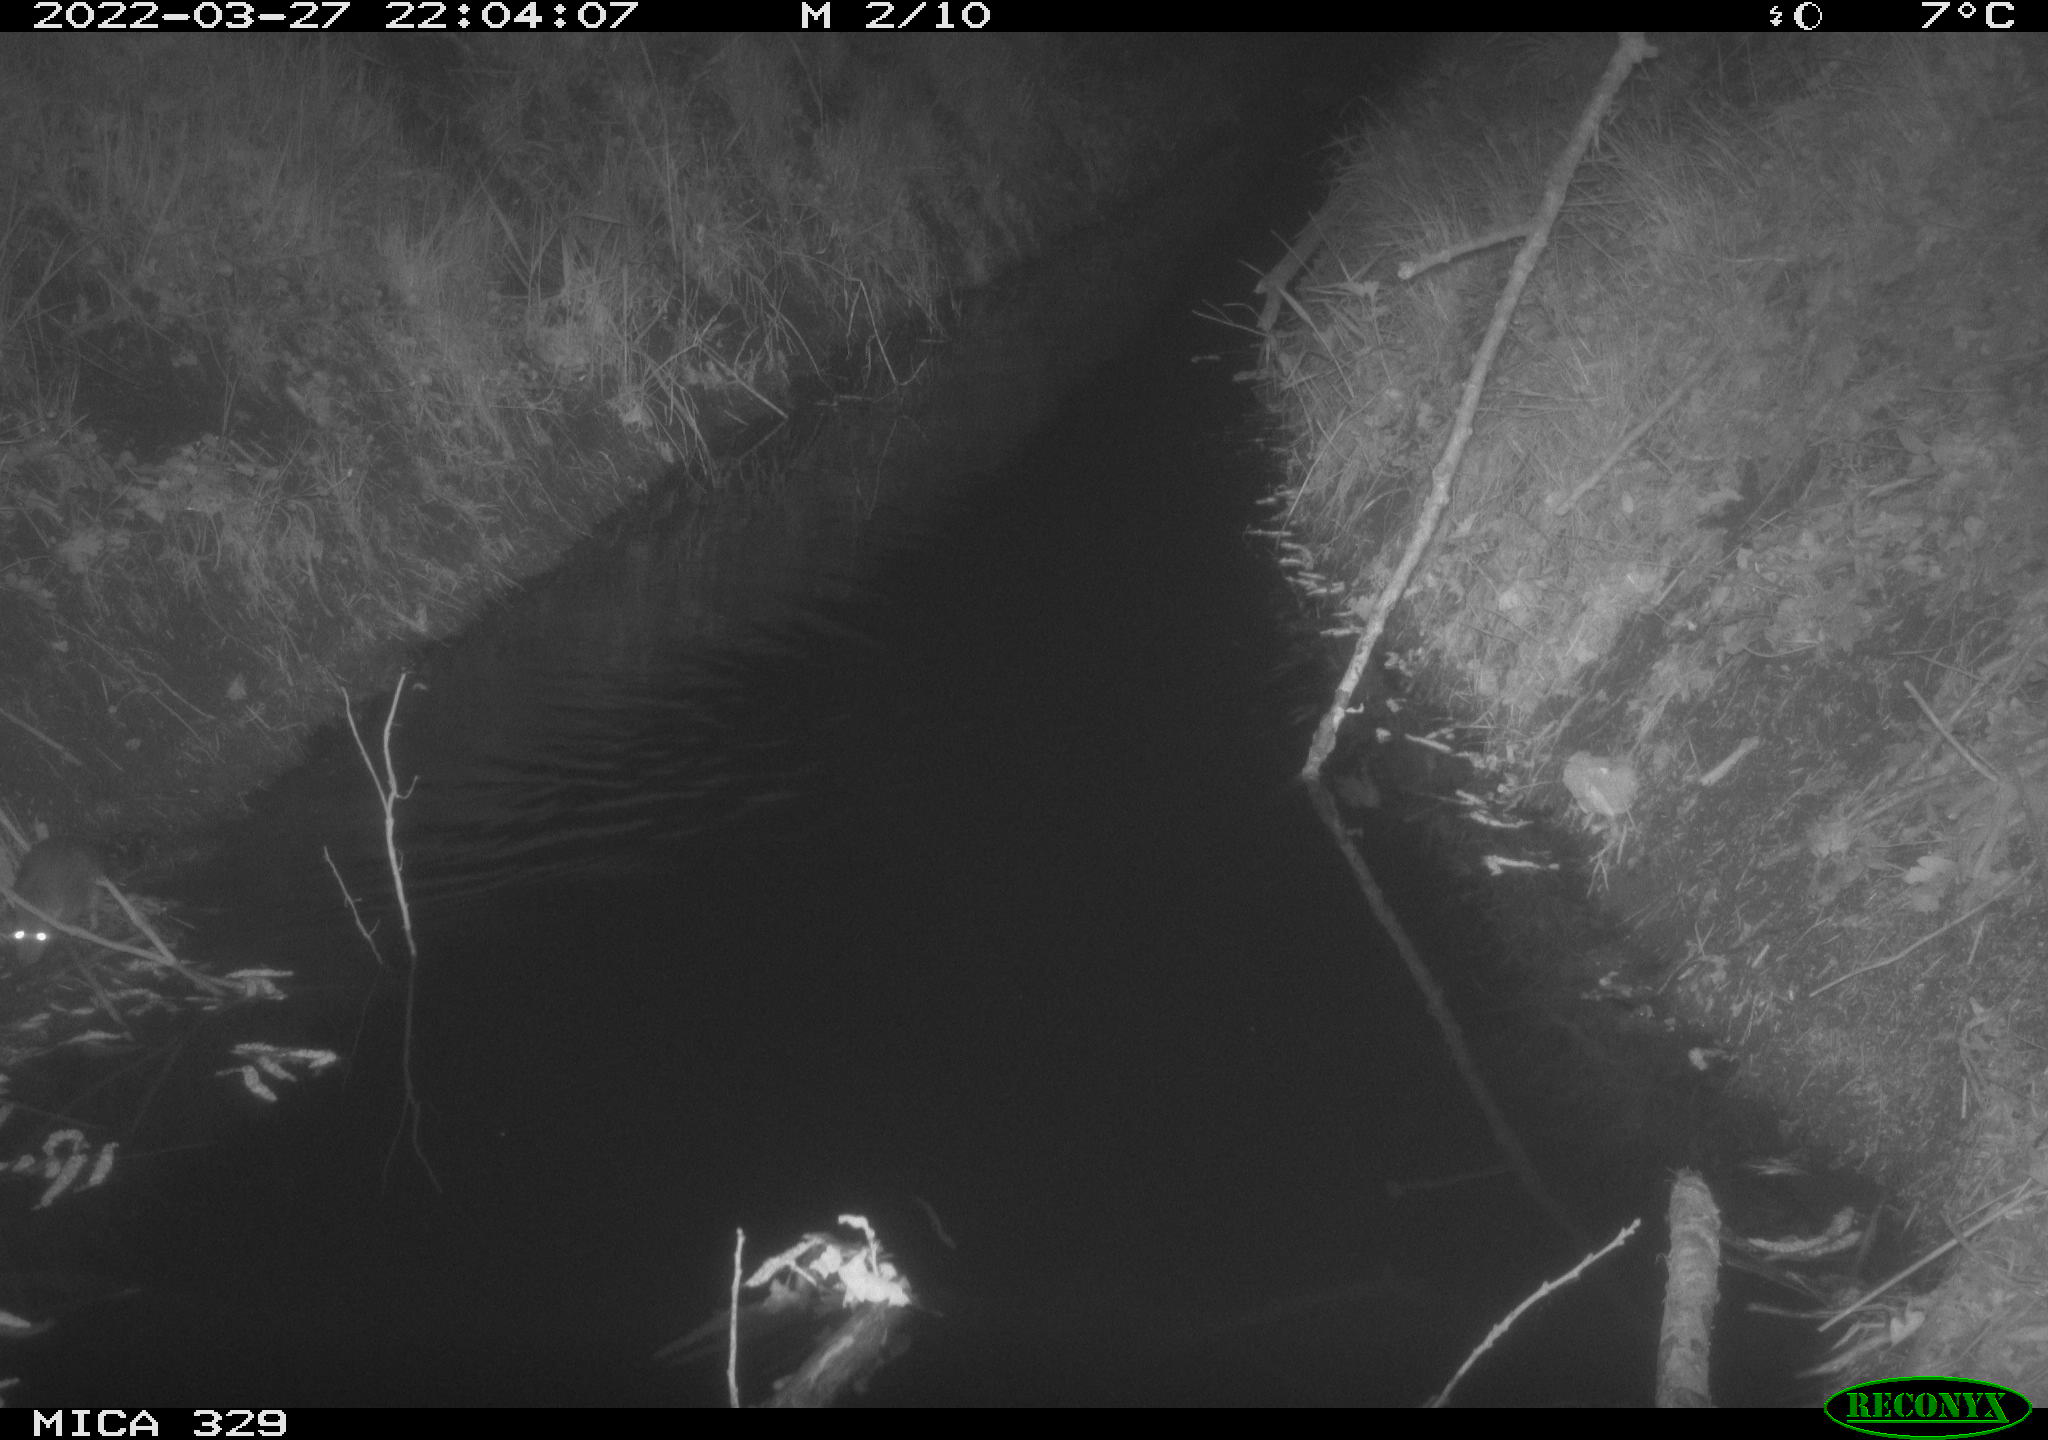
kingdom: Animalia
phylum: Chordata
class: Mammalia
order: Rodentia
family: Muridae
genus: Rattus
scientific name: Rattus norvegicus
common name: Brown rat
